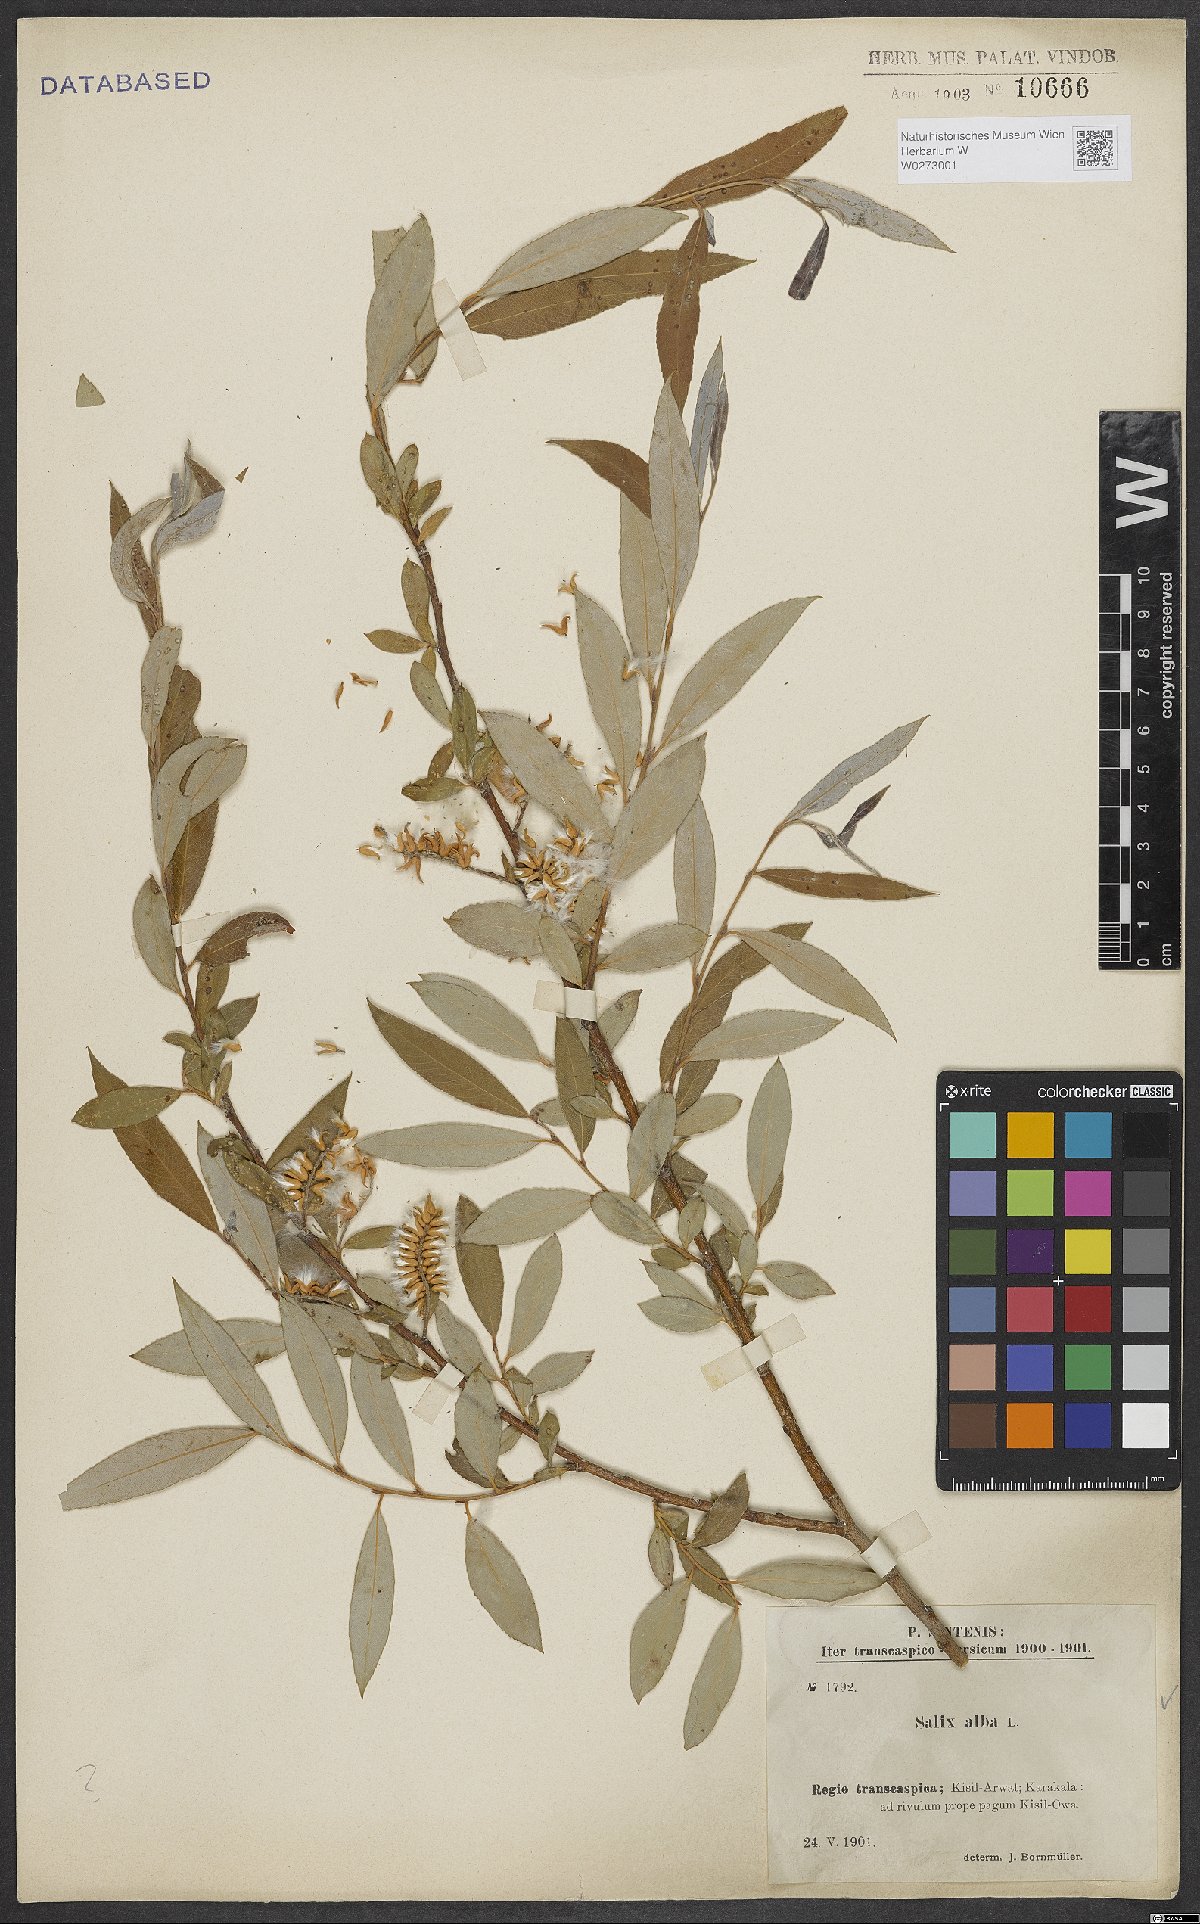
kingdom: Plantae
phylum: Tracheophyta
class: Magnoliopsida
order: Malpighiales
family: Salicaceae
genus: Salix
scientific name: Salix alba
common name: White willow
